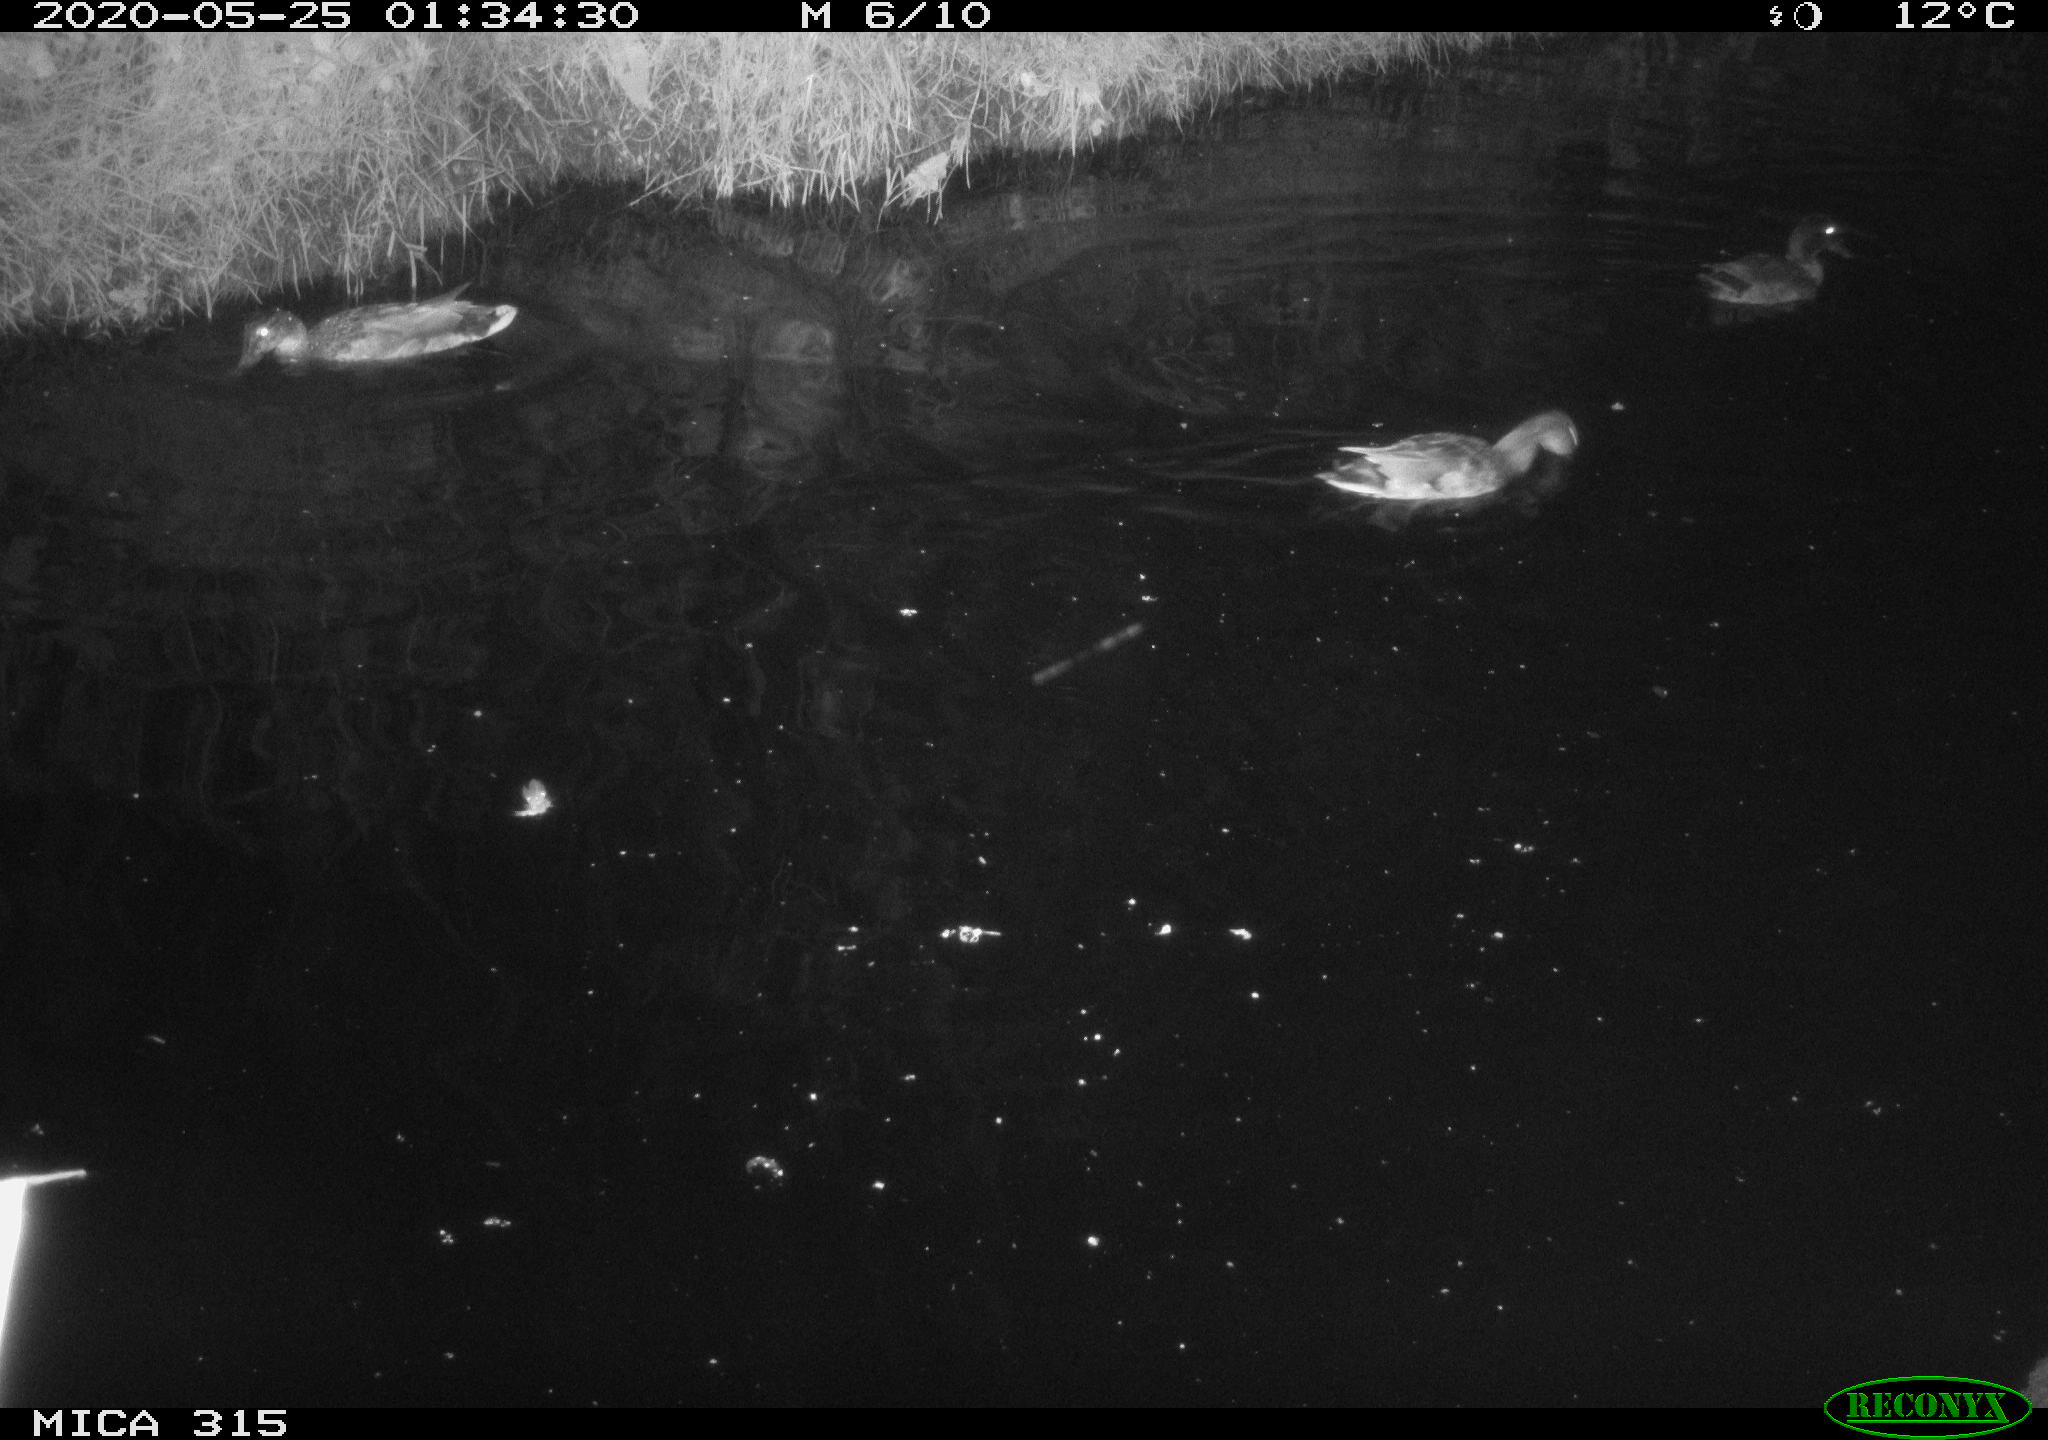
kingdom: Animalia
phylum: Chordata
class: Aves
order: Anseriformes
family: Anatidae
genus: Anas
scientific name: Anas platyrhynchos
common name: Mallard
